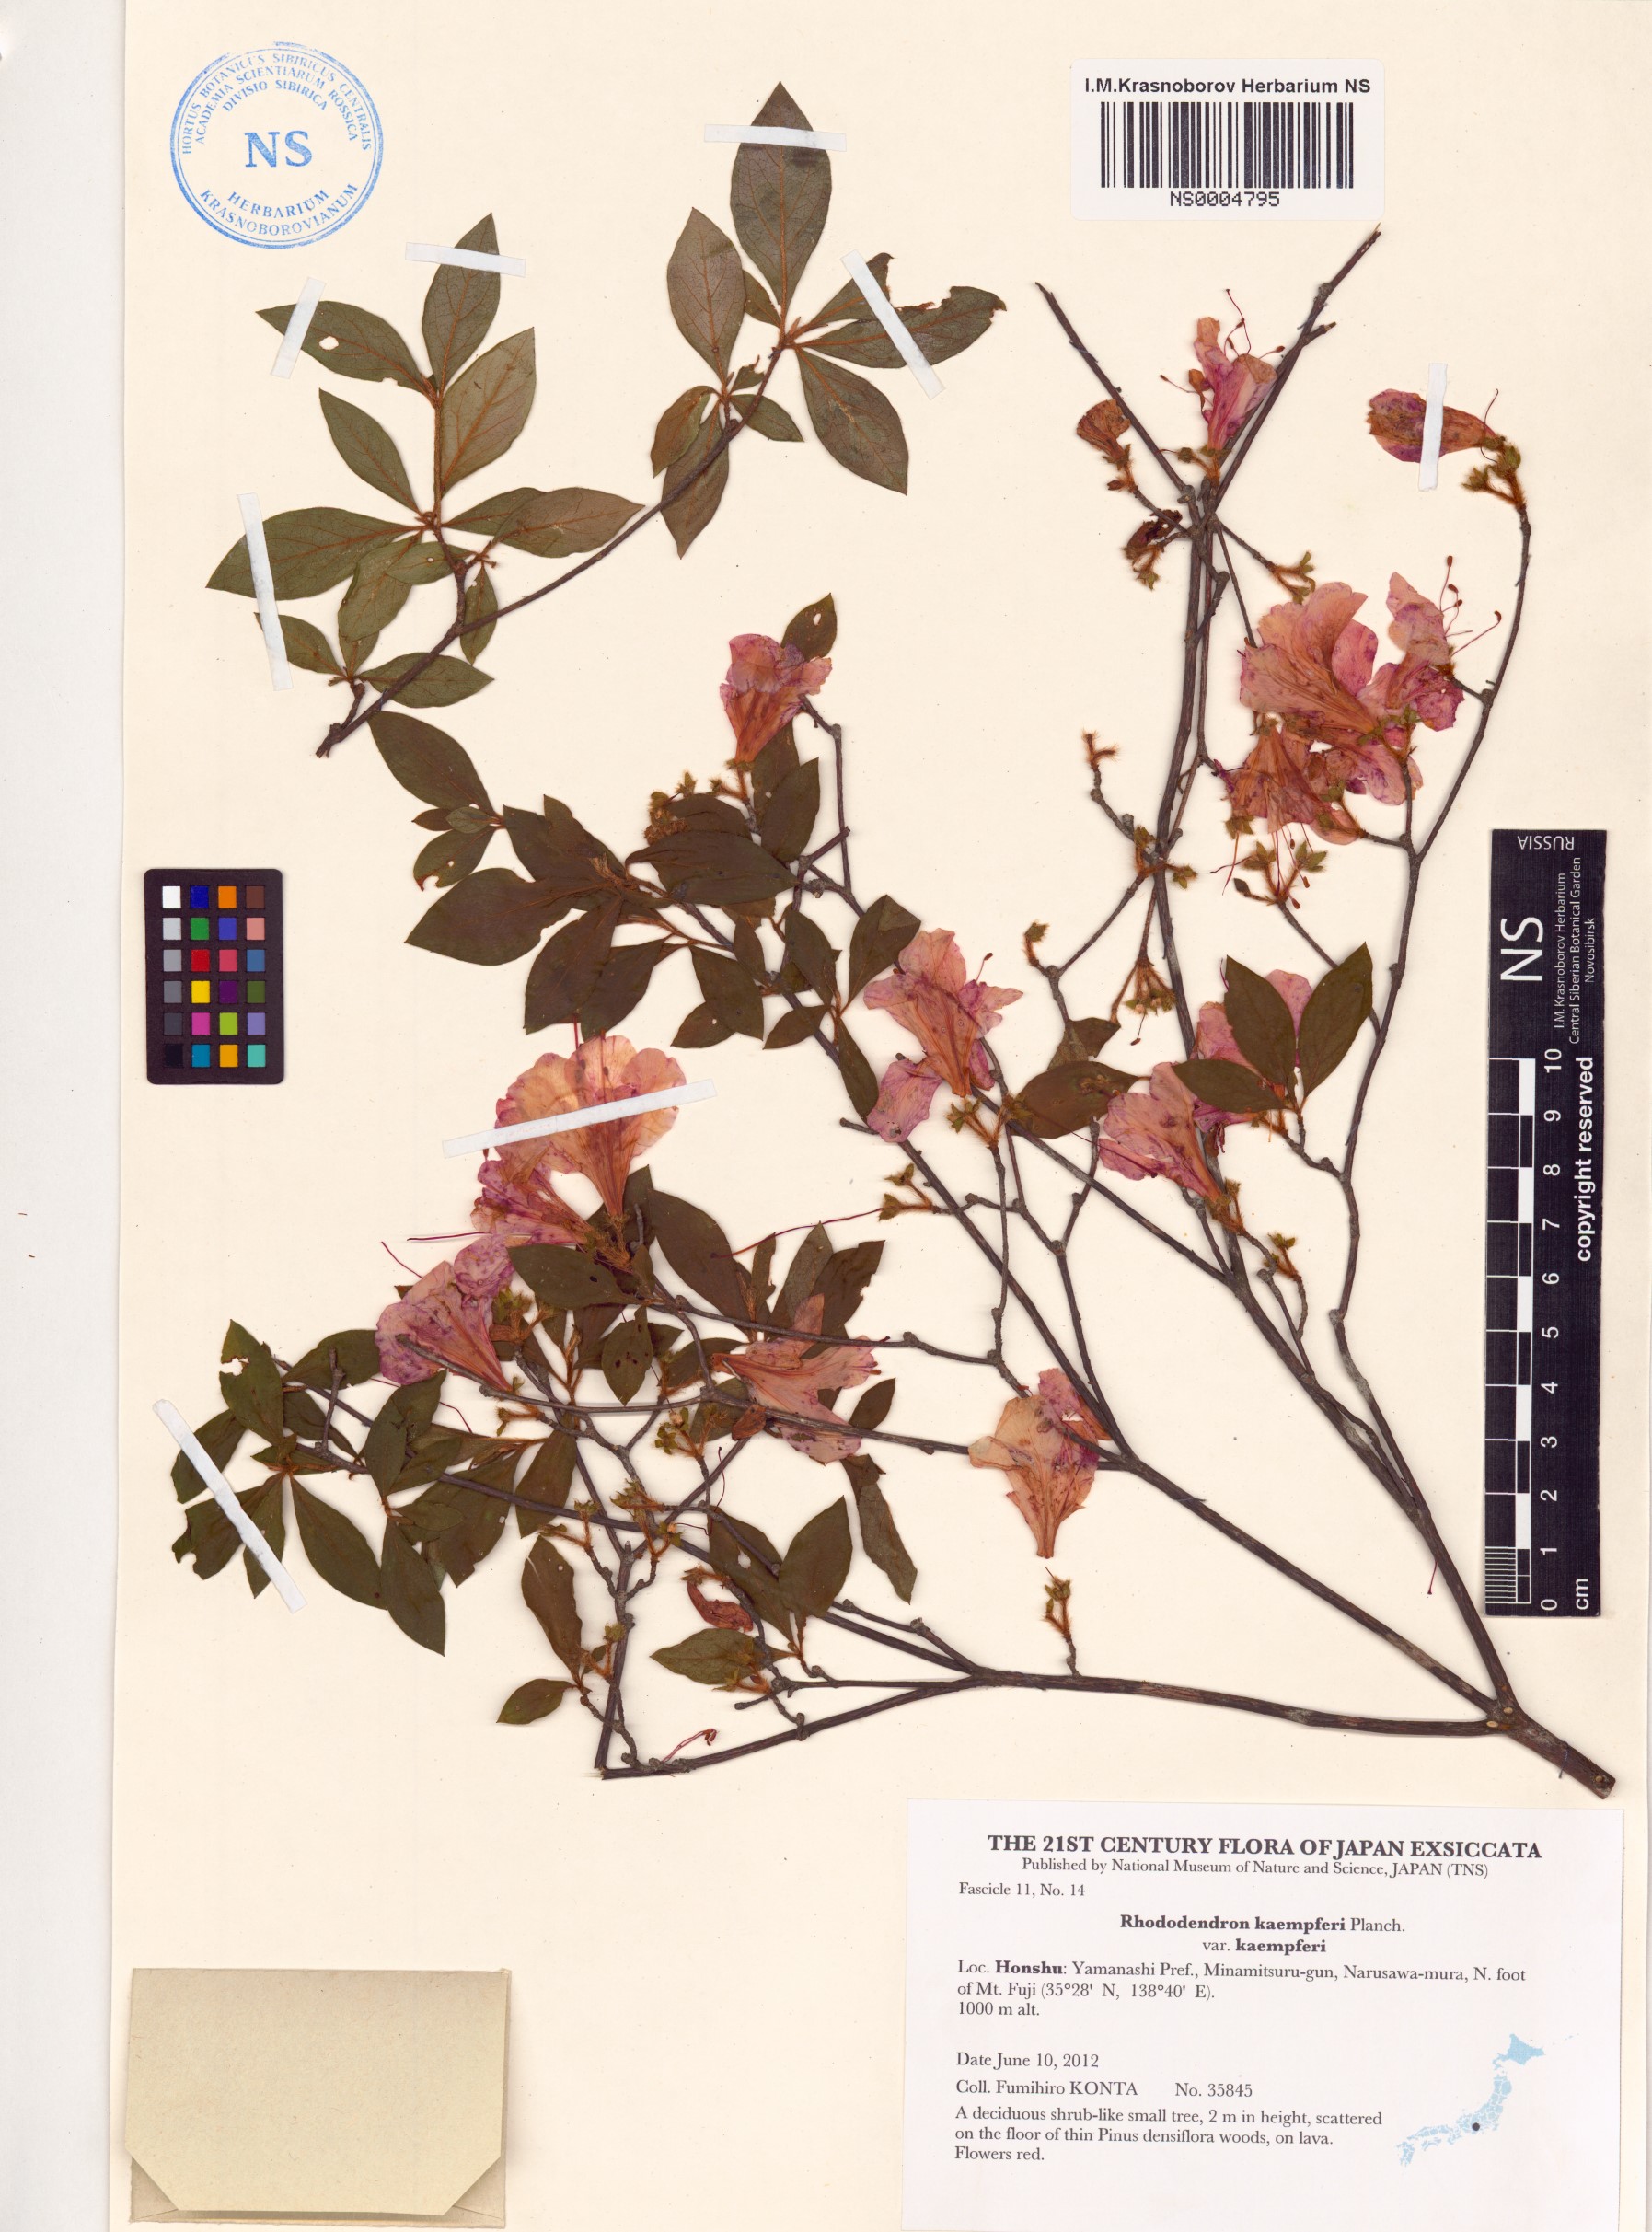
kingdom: Plantae
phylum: Tracheophyta
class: Magnoliopsida
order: Ericales
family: Ericaceae
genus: Rhododendron
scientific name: Rhododendron kaempferi
